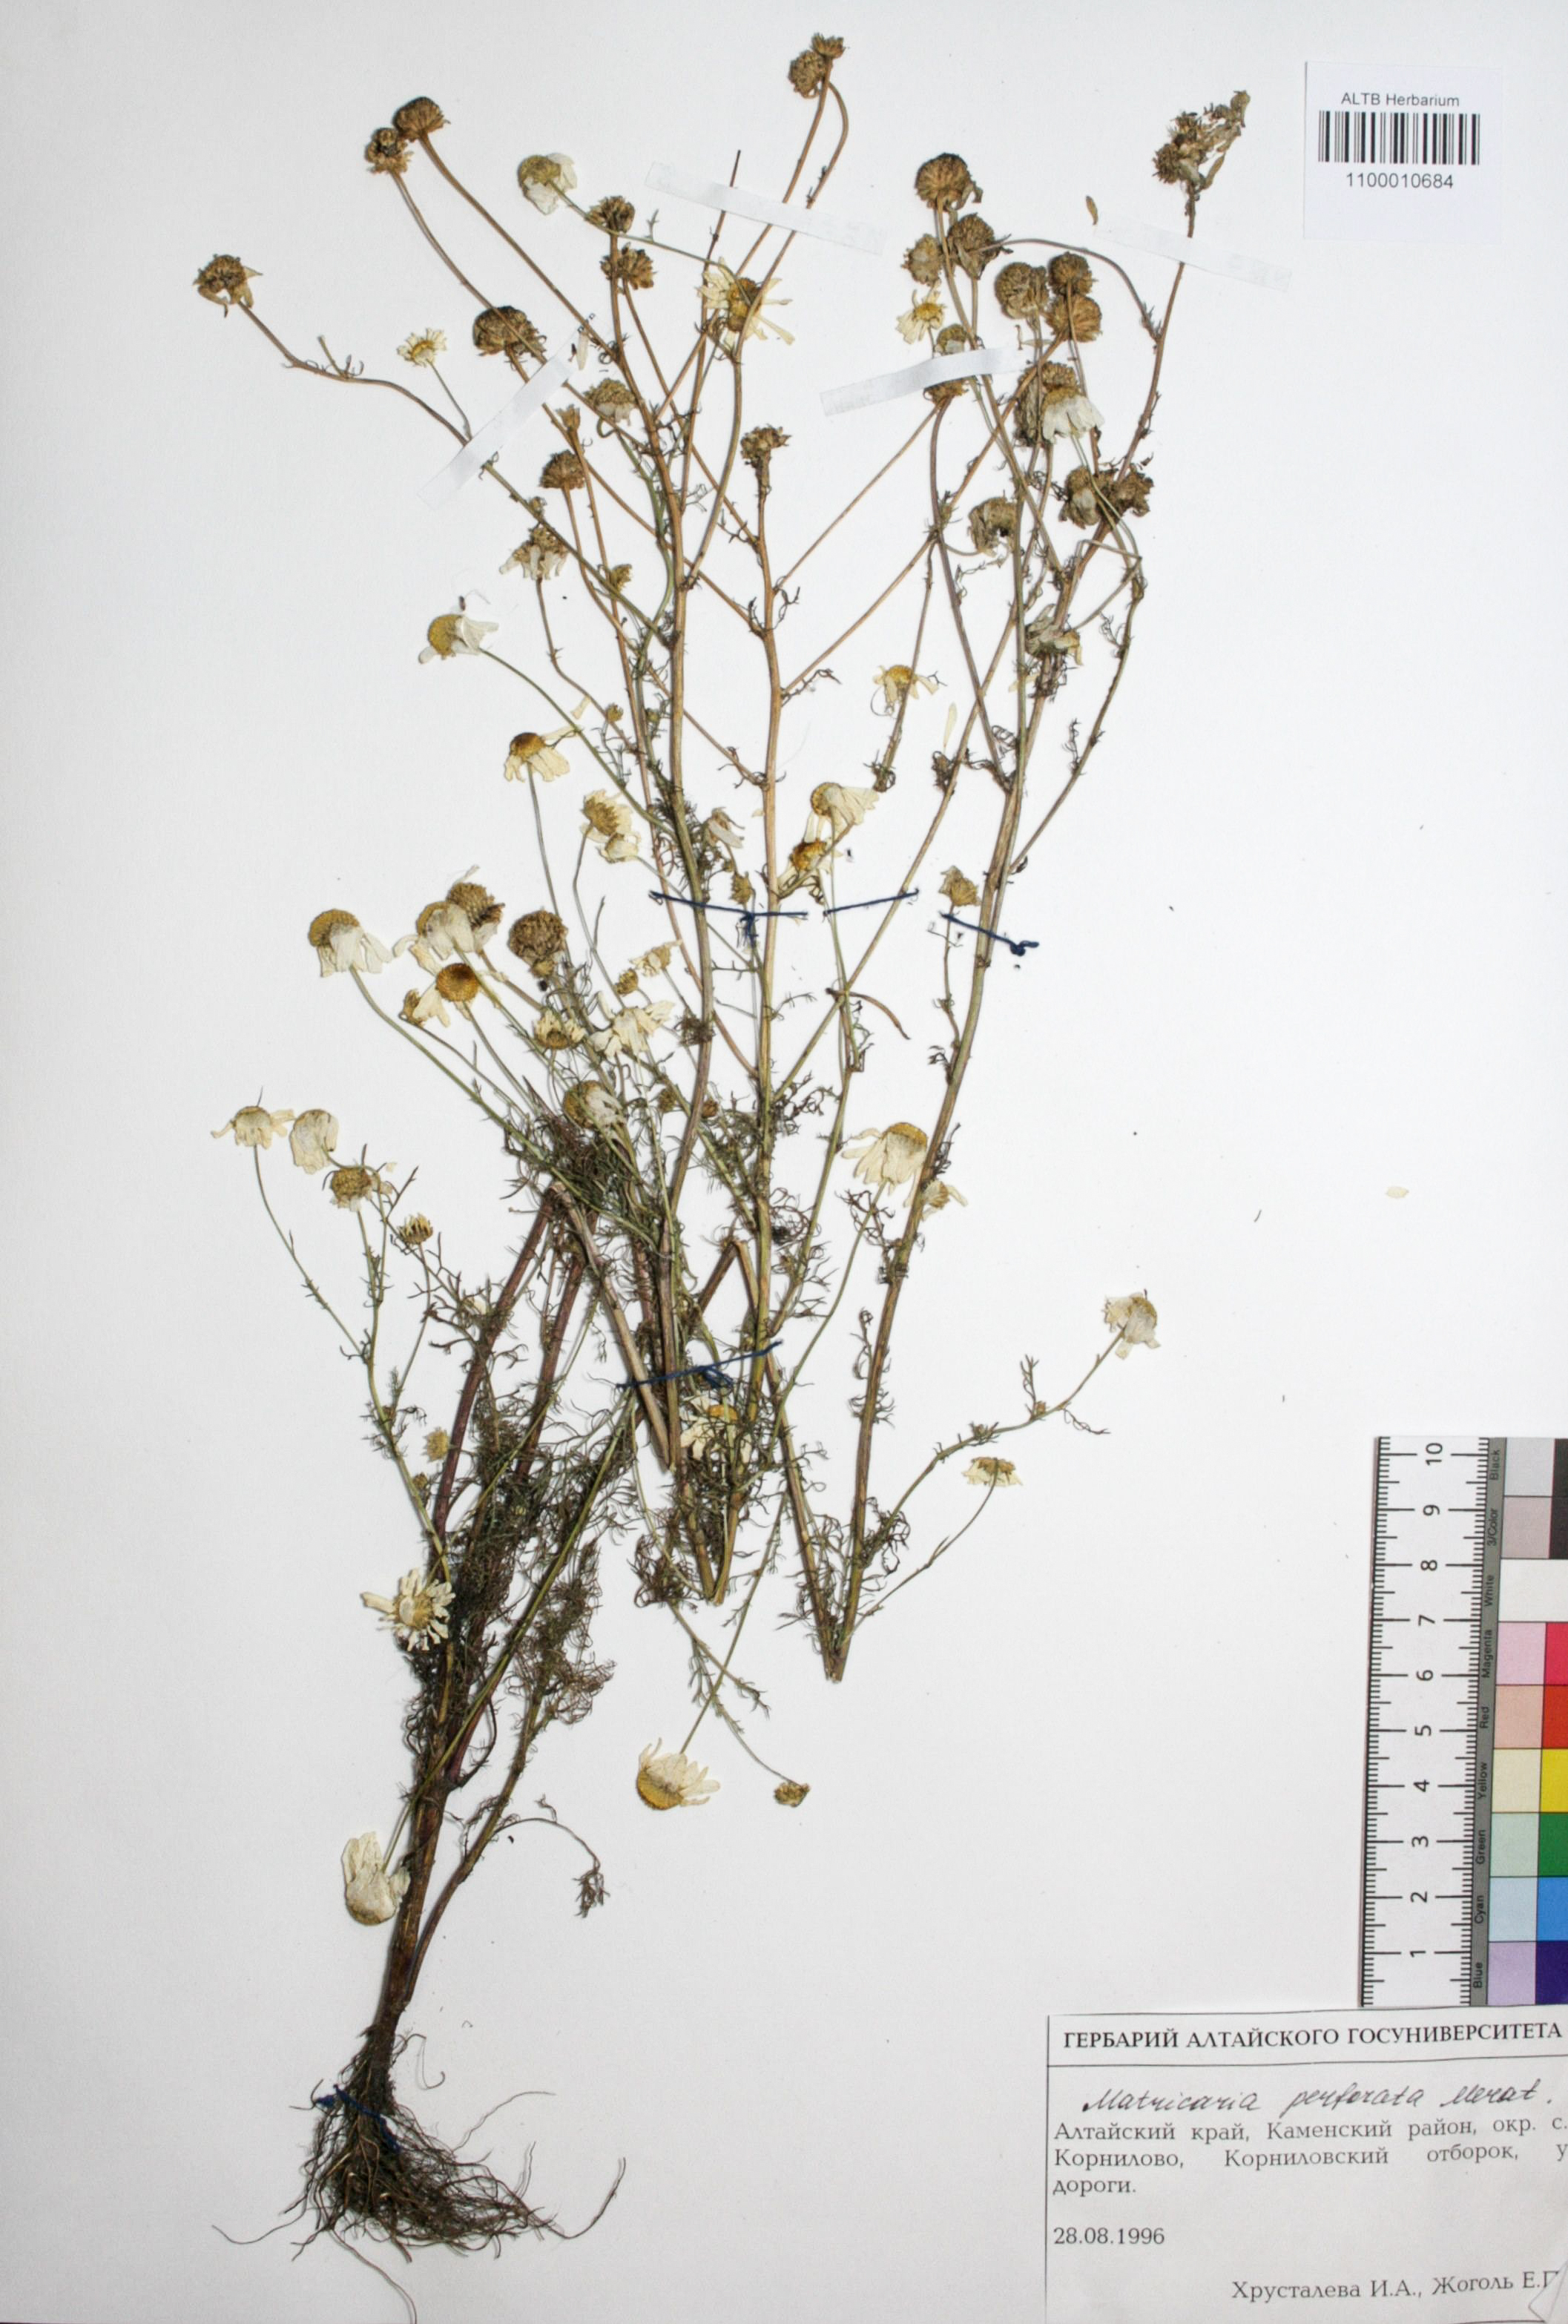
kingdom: Plantae
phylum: Tracheophyta
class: Magnoliopsida
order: Asterales
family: Asteraceae
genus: Tripleurospermum
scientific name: Tripleurospermum inodorum
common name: Scentless mayweed
